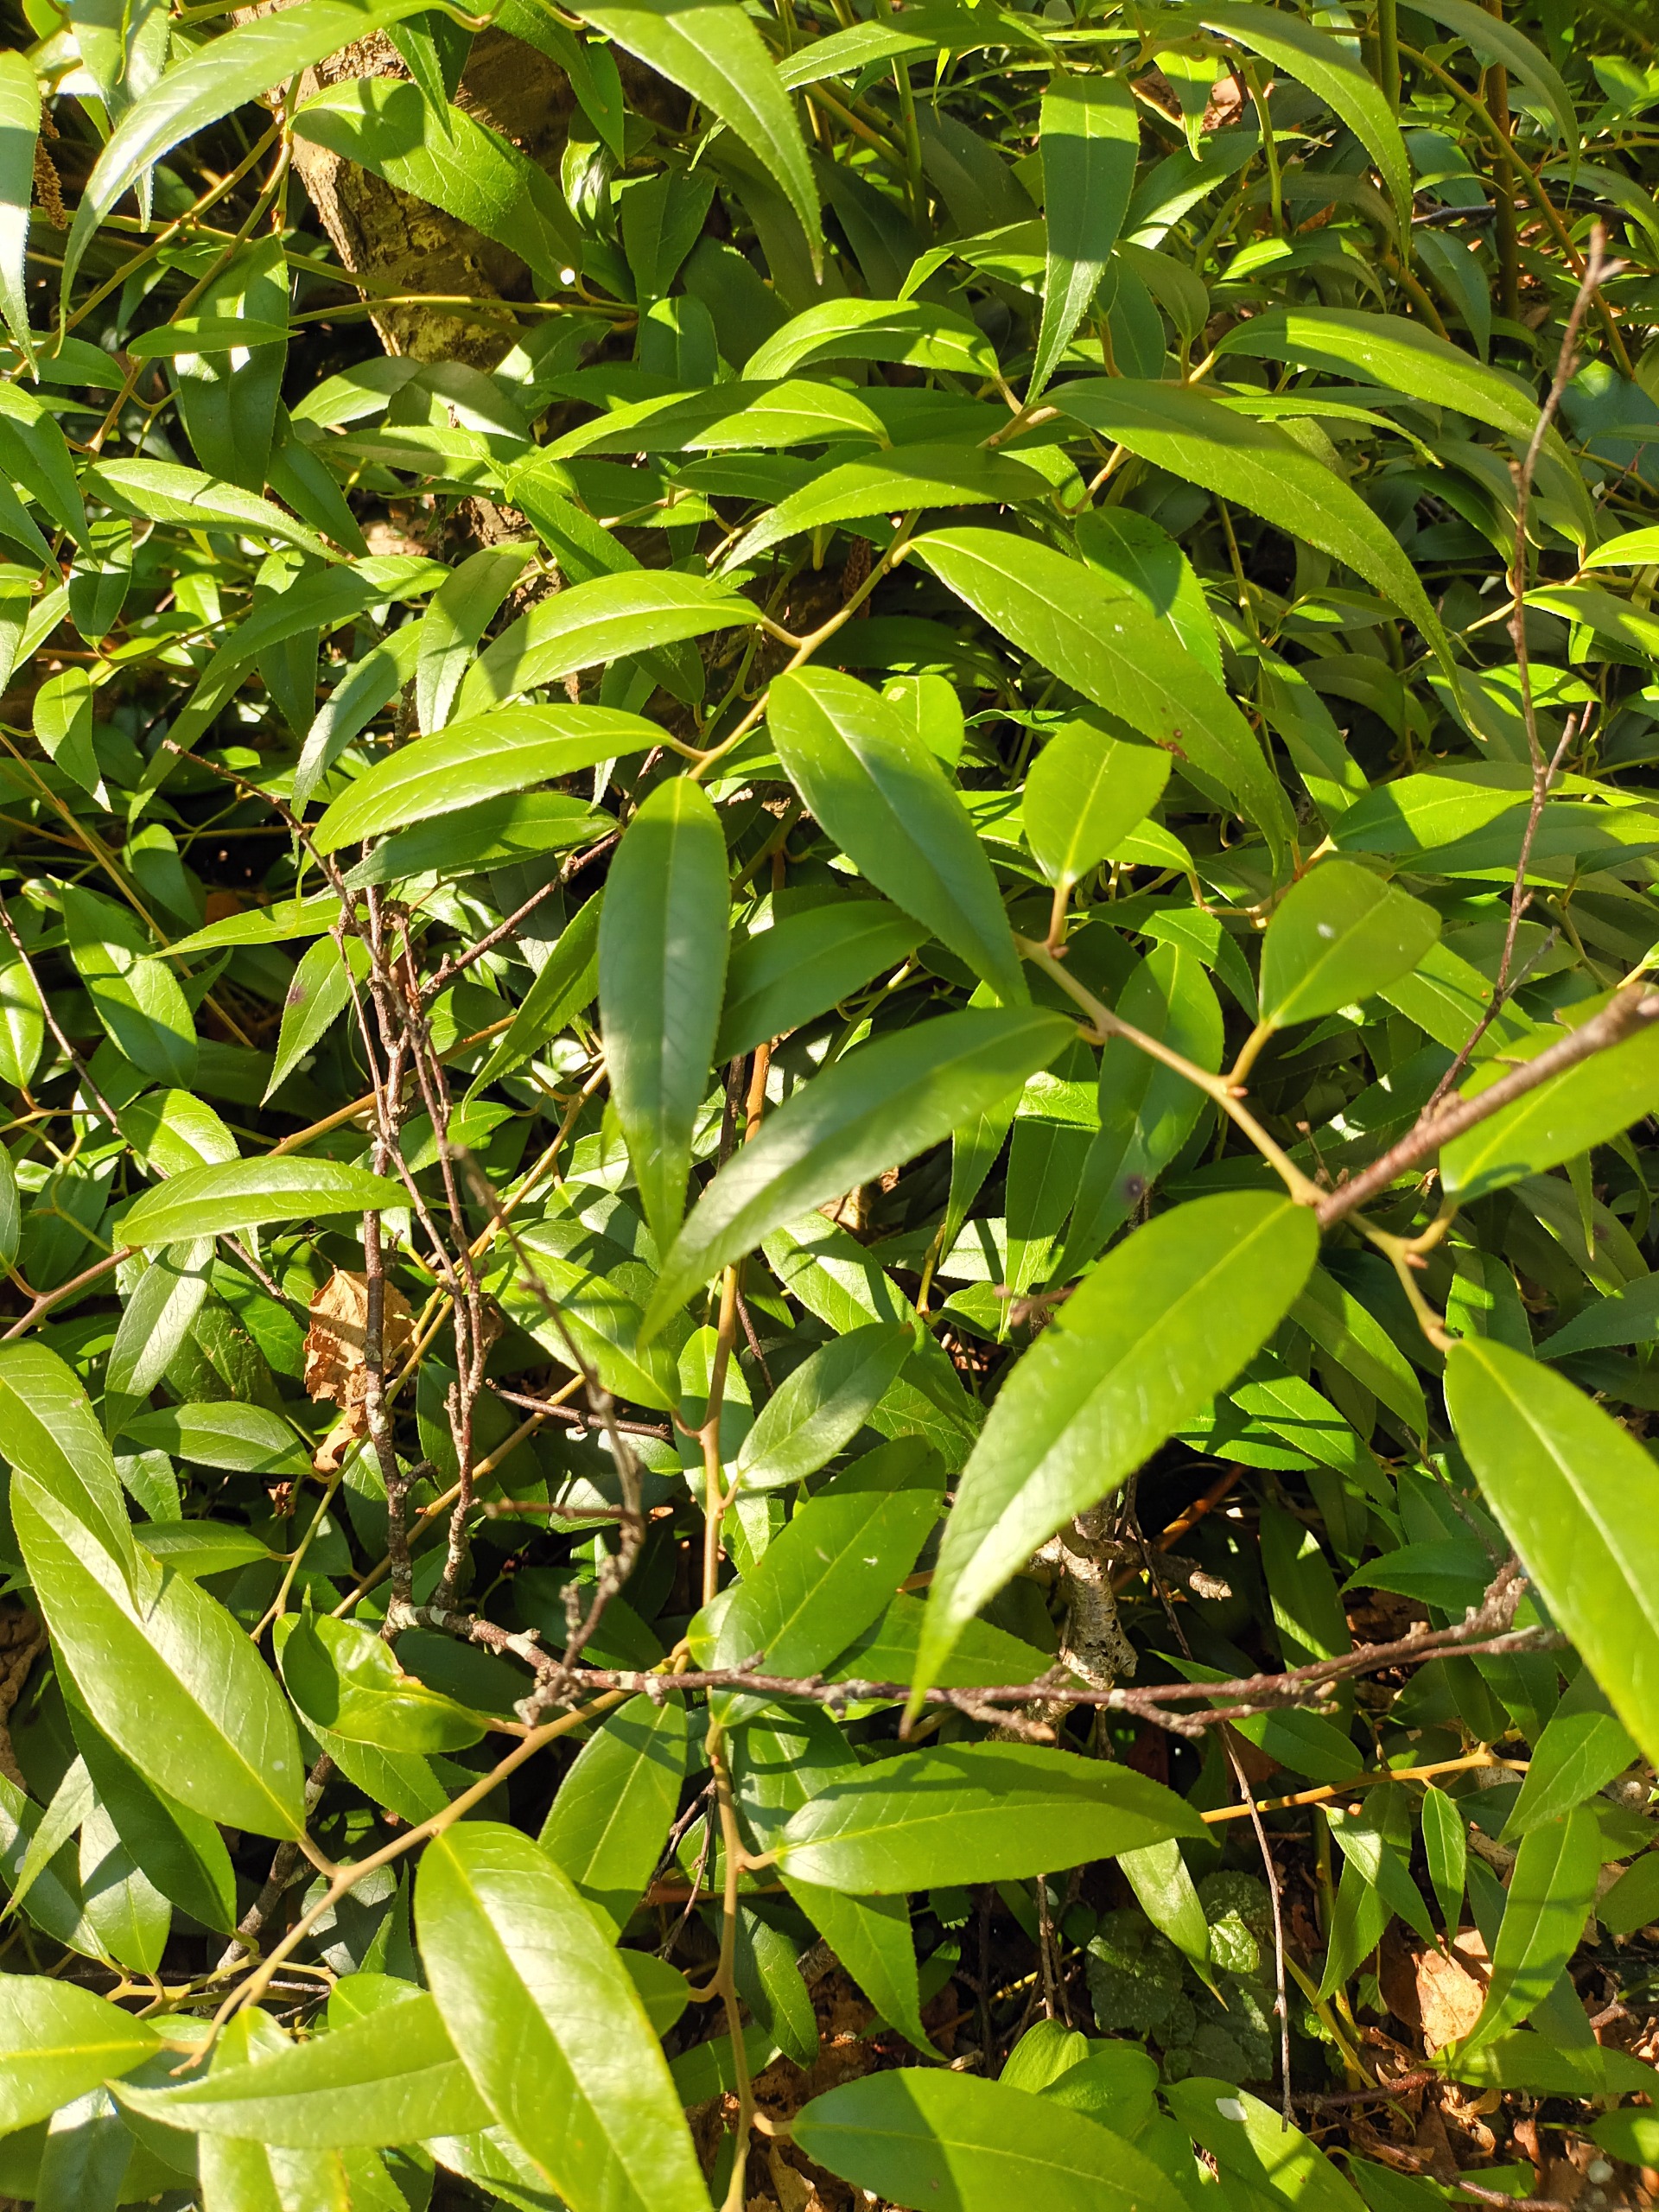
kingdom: Plantae
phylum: Tracheophyta
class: Magnoliopsida
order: Ericales
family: Ericaceae
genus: Leucothoe
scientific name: Leucothoe fontanesiana
